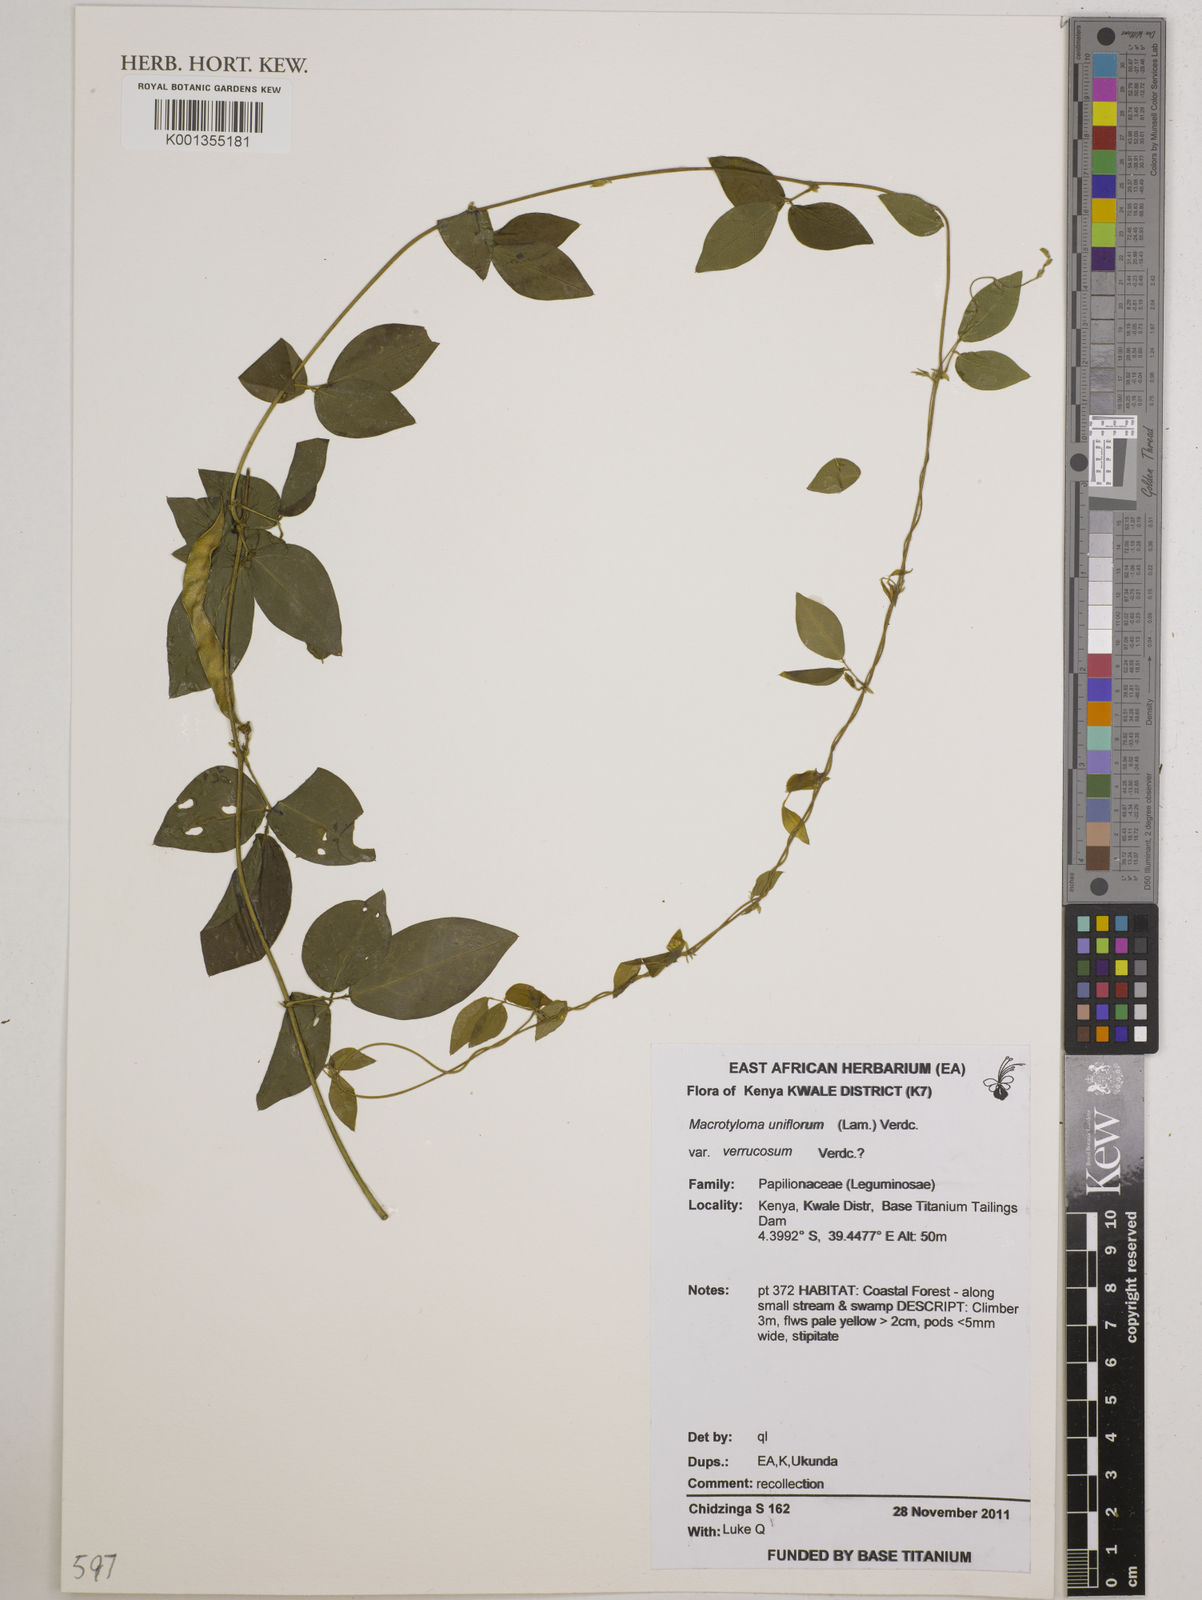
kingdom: Plantae
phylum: Tracheophyta
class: Magnoliopsida
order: Fabales
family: Fabaceae
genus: Macrotyloma
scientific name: Macrotyloma
